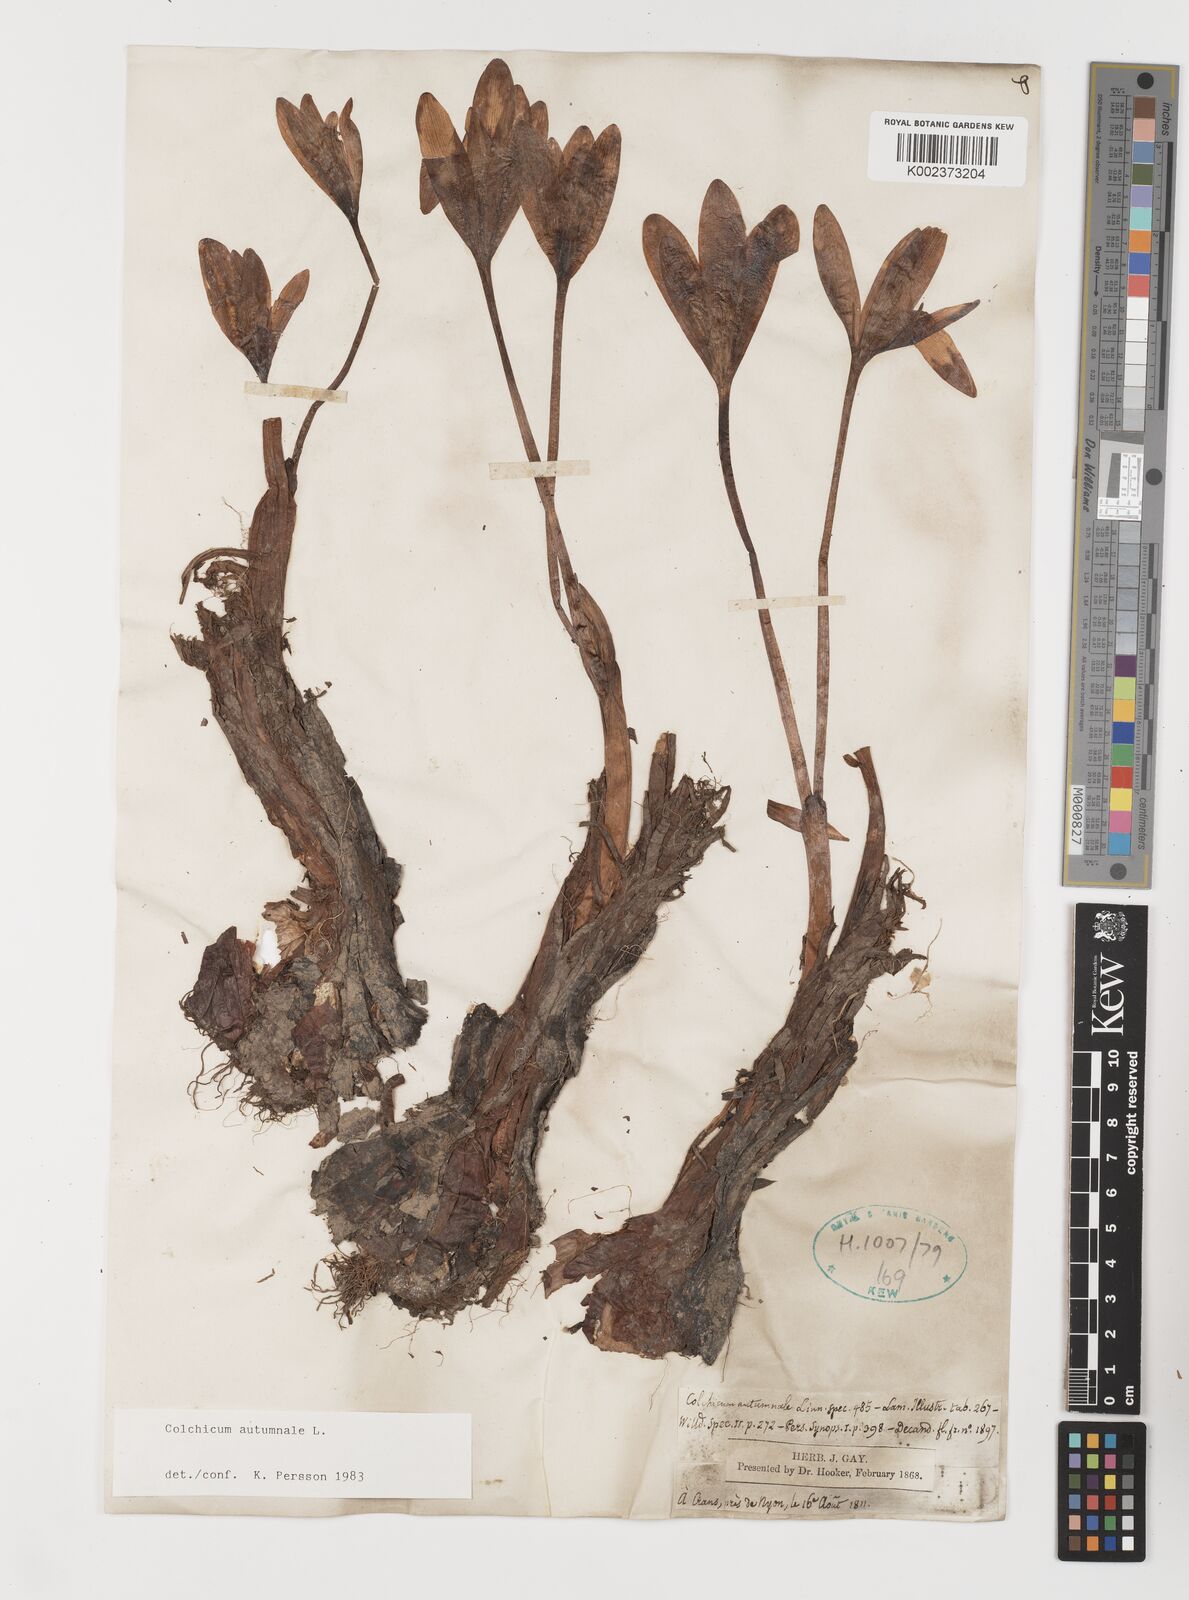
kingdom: Plantae
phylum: Tracheophyta
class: Liliopsida
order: Liliales
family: Colchicaceae
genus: Colchicum
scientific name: Colchicum autumnale
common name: Autumn crocus
